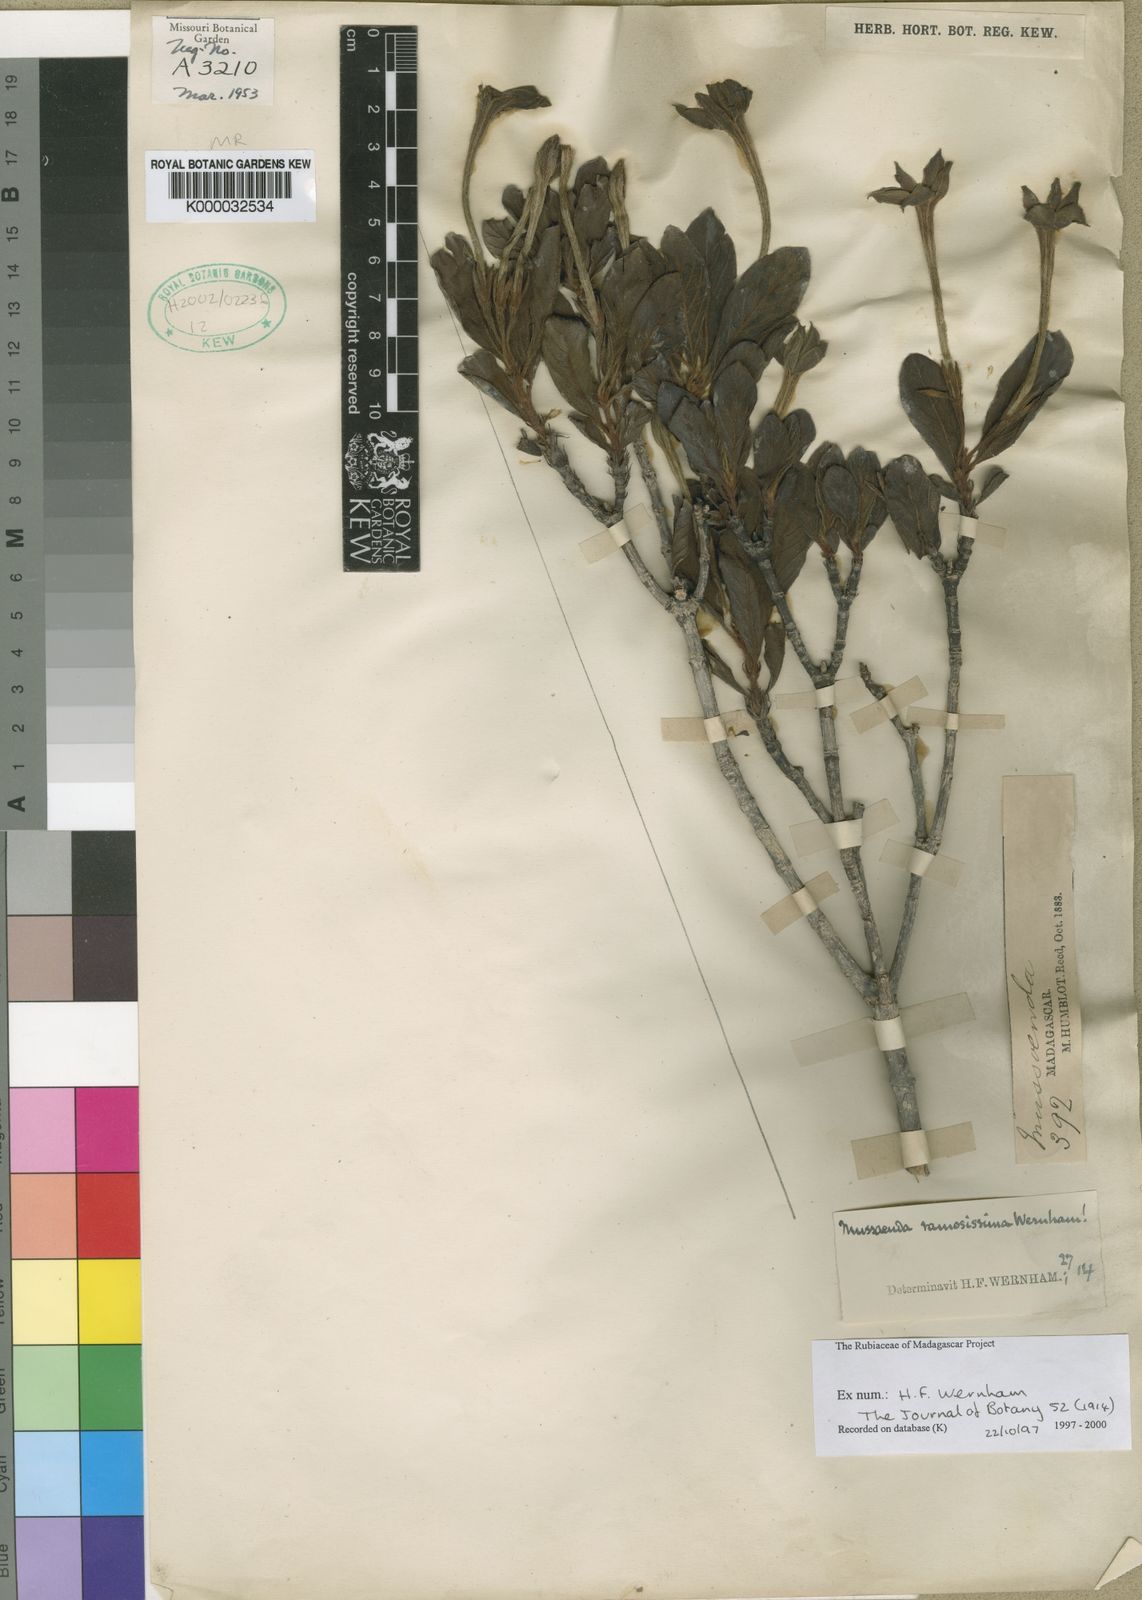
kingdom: Plantae
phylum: Tracheophyta
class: Magnoliopsida
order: Gentianales
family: Rubiaceae
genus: Bremeria
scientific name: Bremeria eriantha
